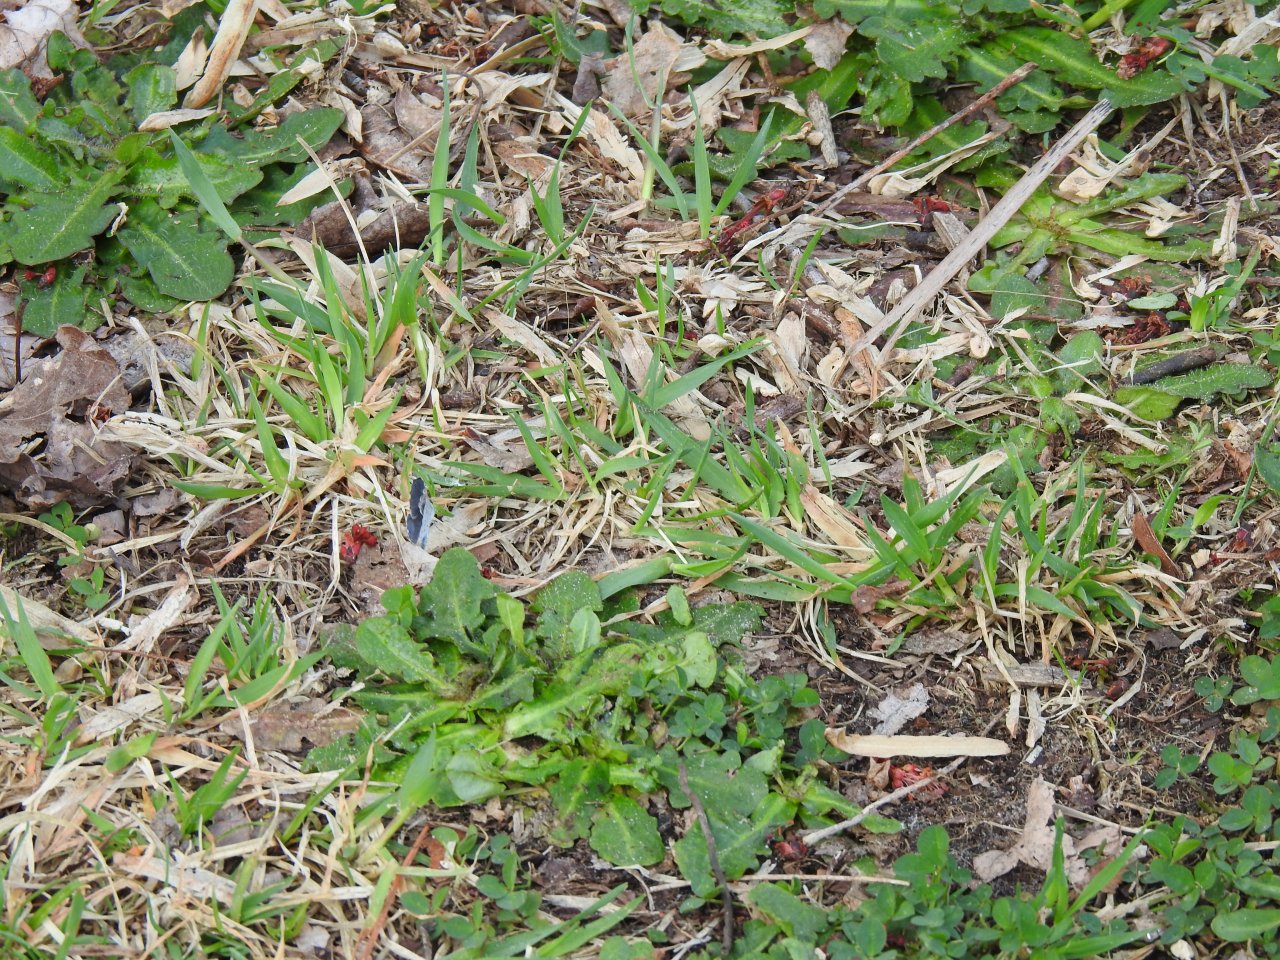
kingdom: Animalia
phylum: Arthropoda
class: Insecta
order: Lepidoptera
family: Lycaenidae
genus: Celastrina
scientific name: Celastrina
